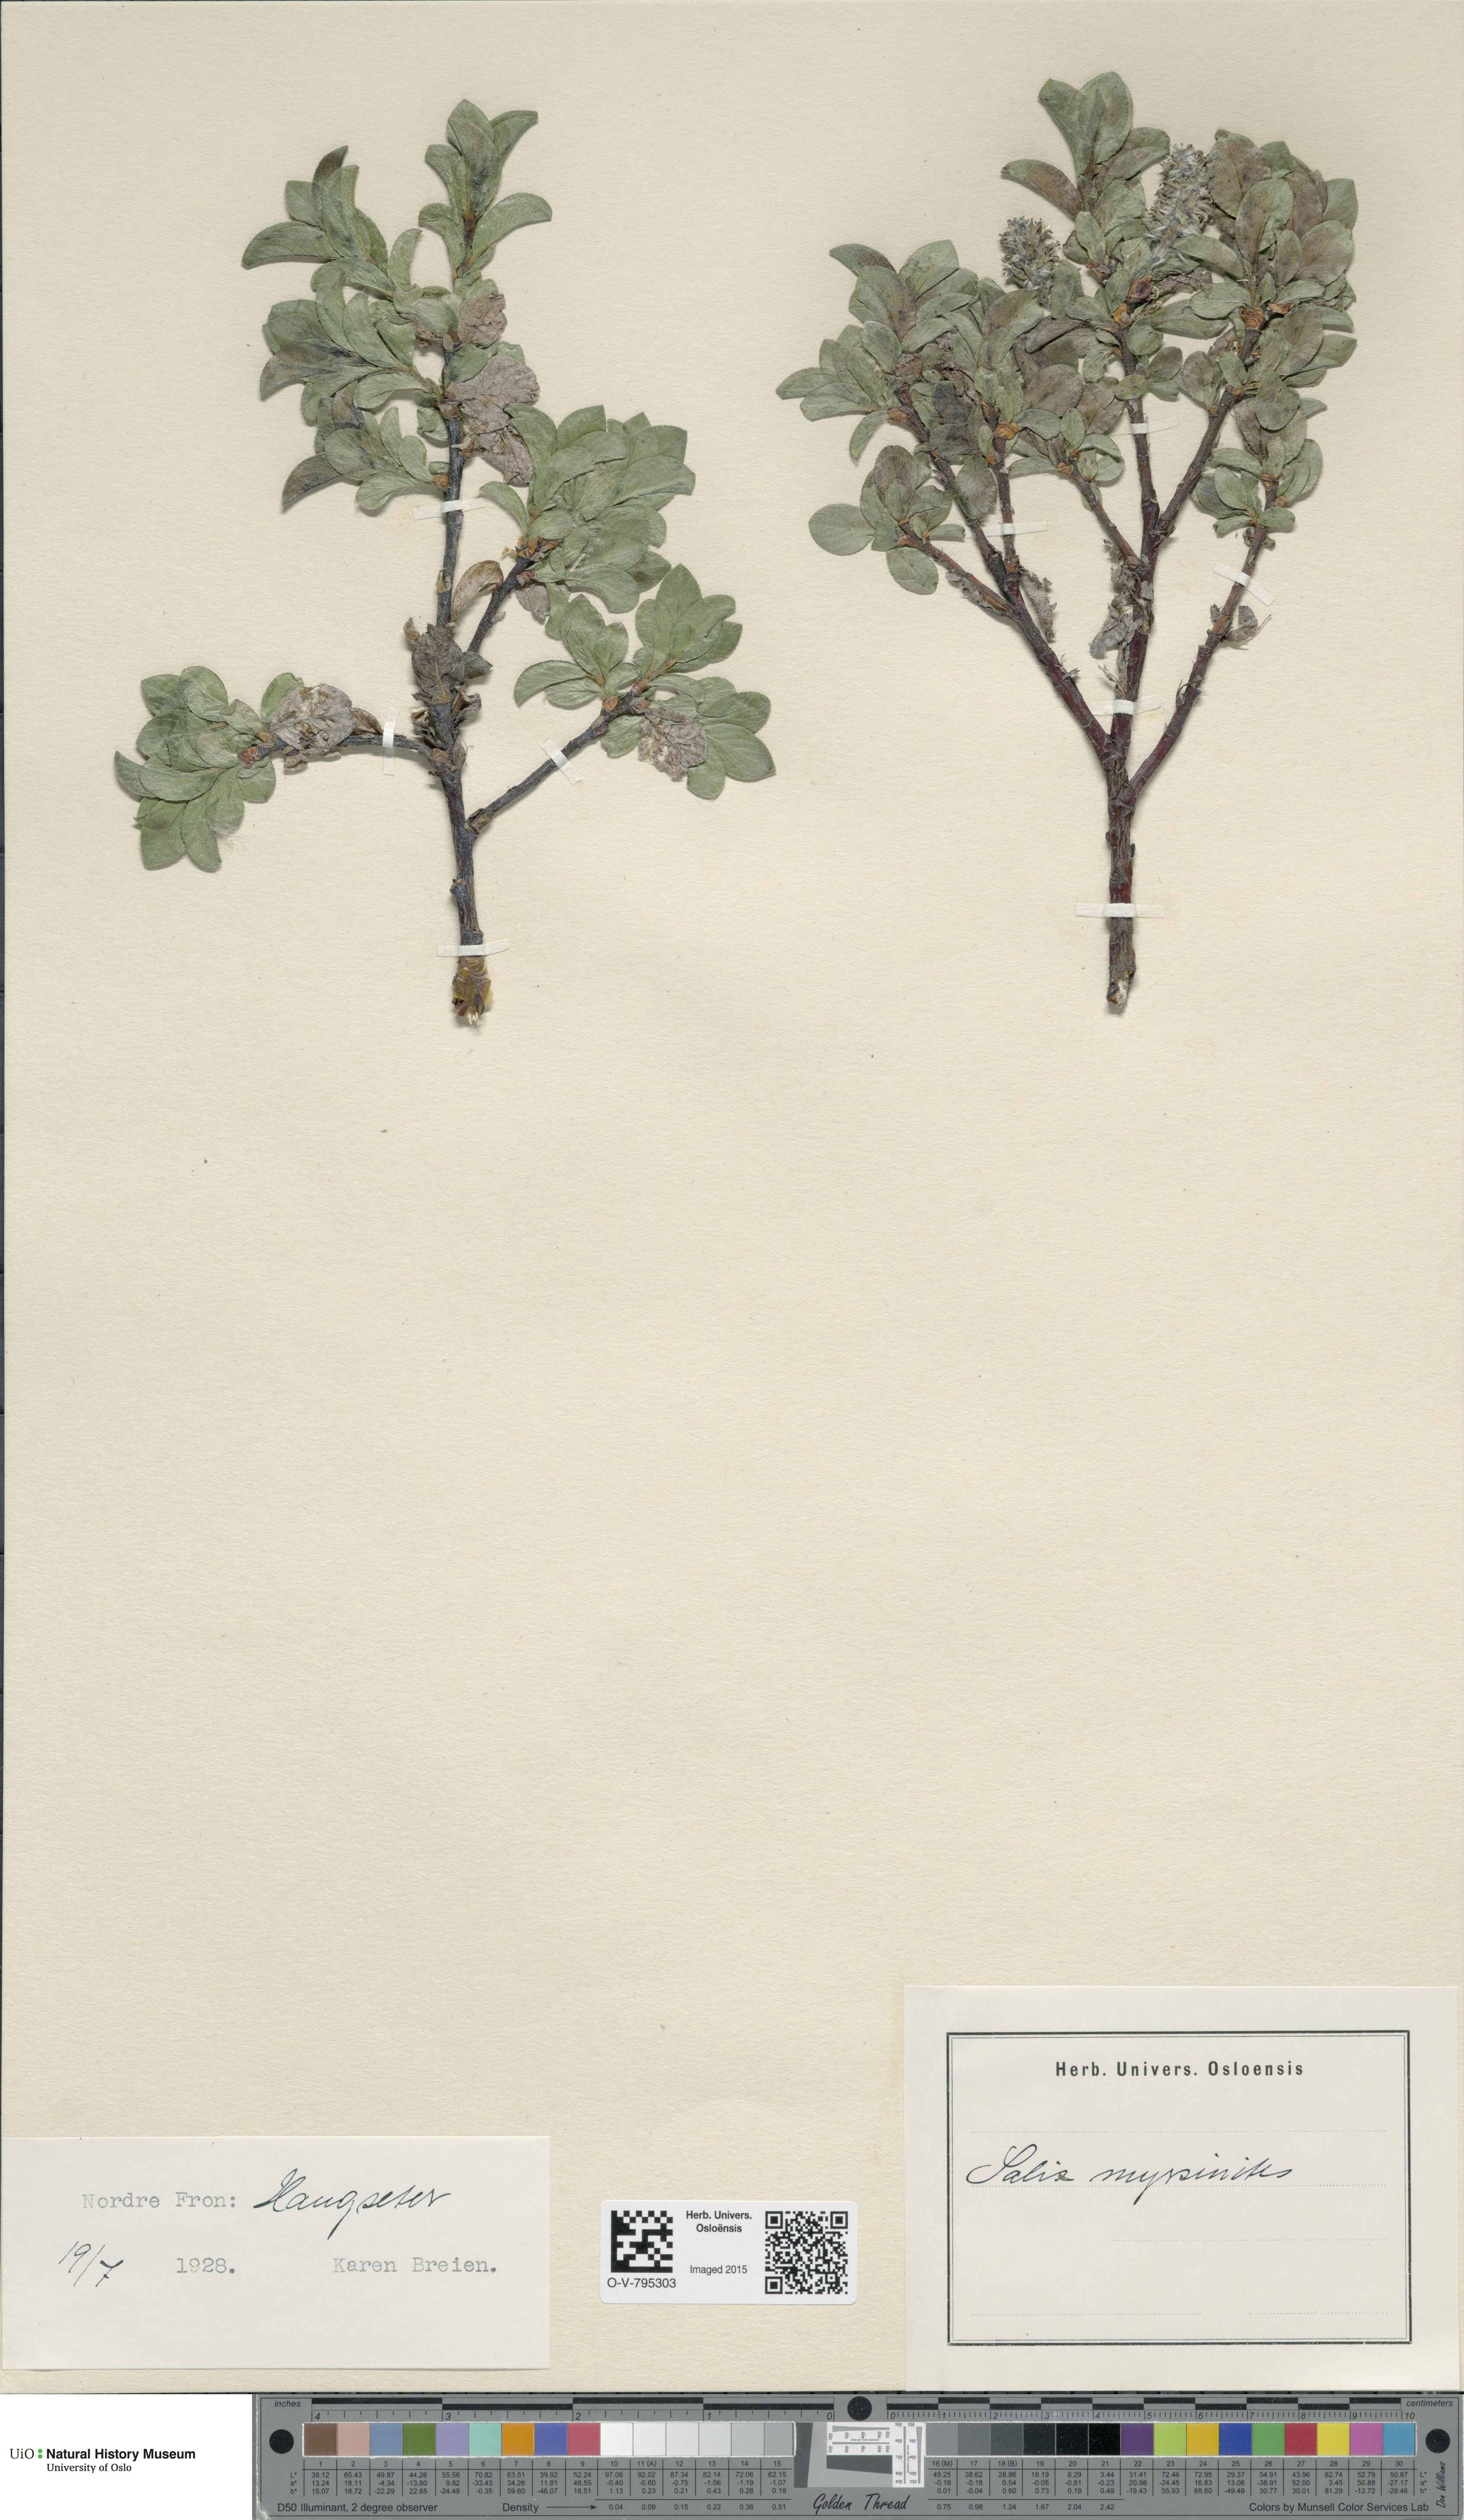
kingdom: Plantae
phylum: Tracheophyta
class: Magnoliopsida
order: Malpighiales
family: Salicaceae
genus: Salix
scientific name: Salix myrsinites
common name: Myrtle willow
